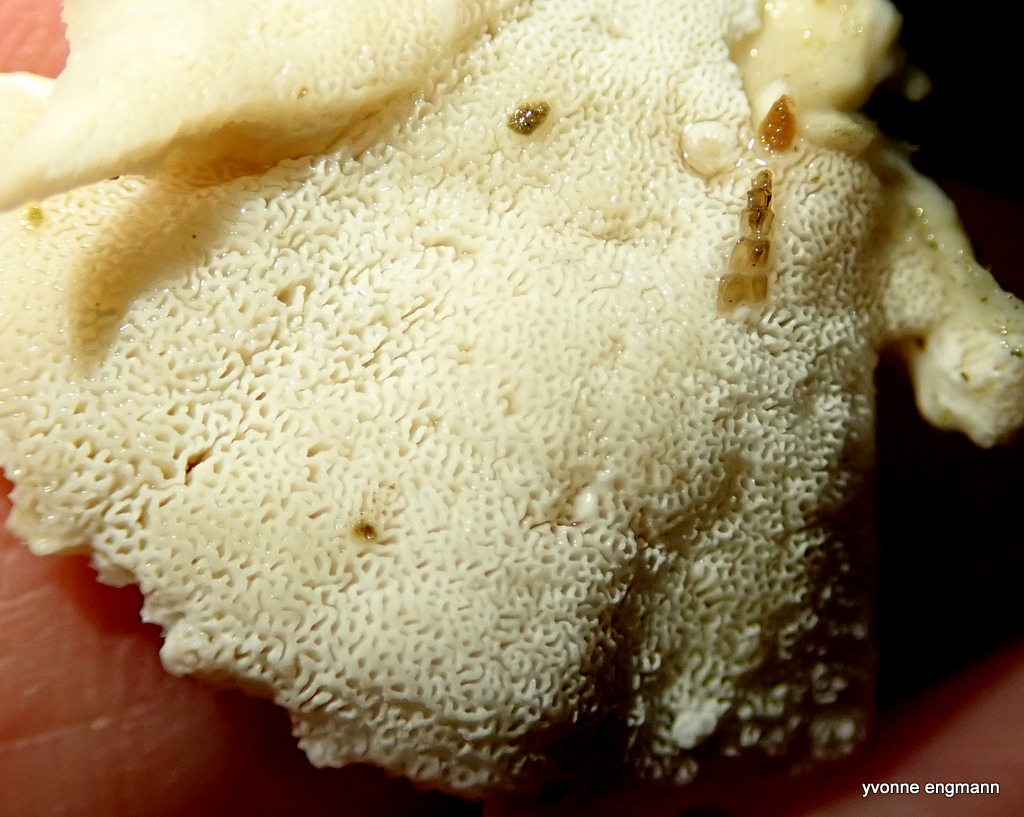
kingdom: Fungi
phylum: Basidiomycota
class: Agaricomycetes
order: Polyporales
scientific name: Polyporales
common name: poresvampordenen
